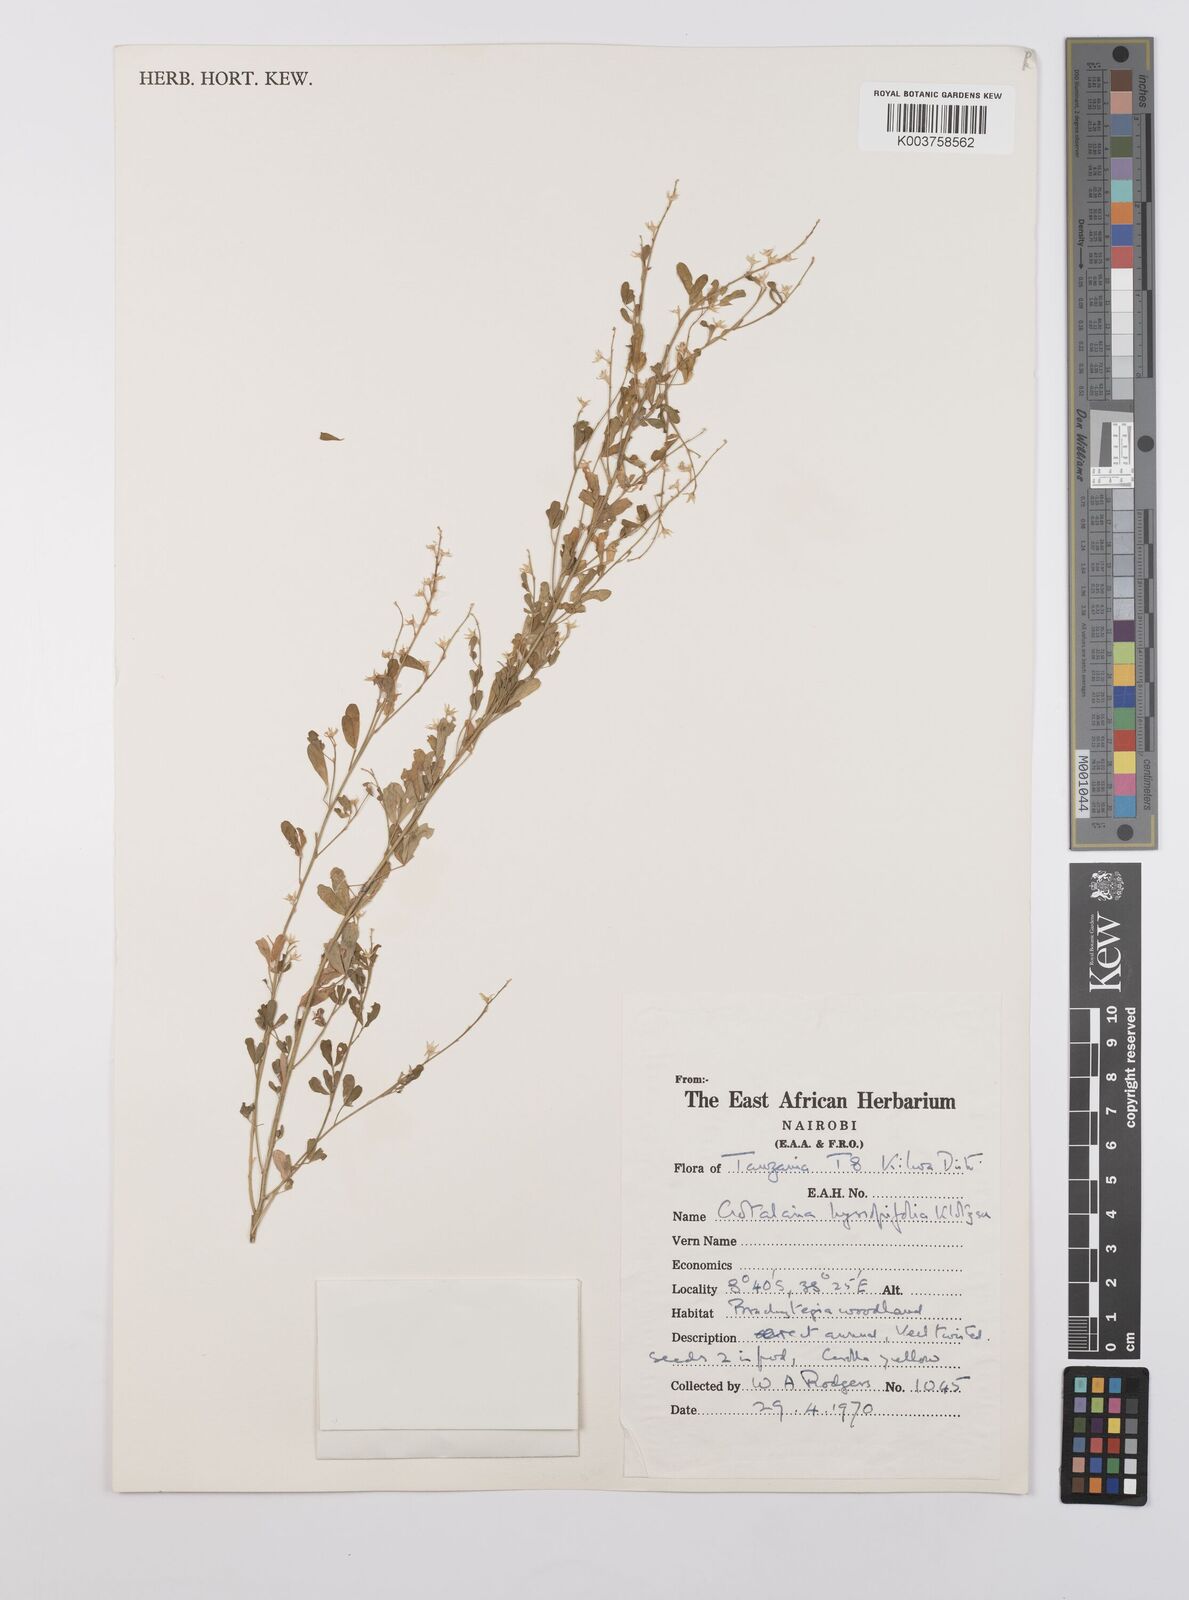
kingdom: Plantae
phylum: Tracheophyta
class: Magnoliopsida
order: Fabales
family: Fabaceae
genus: Crotalaria
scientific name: Crotalaria hyssopifolia
